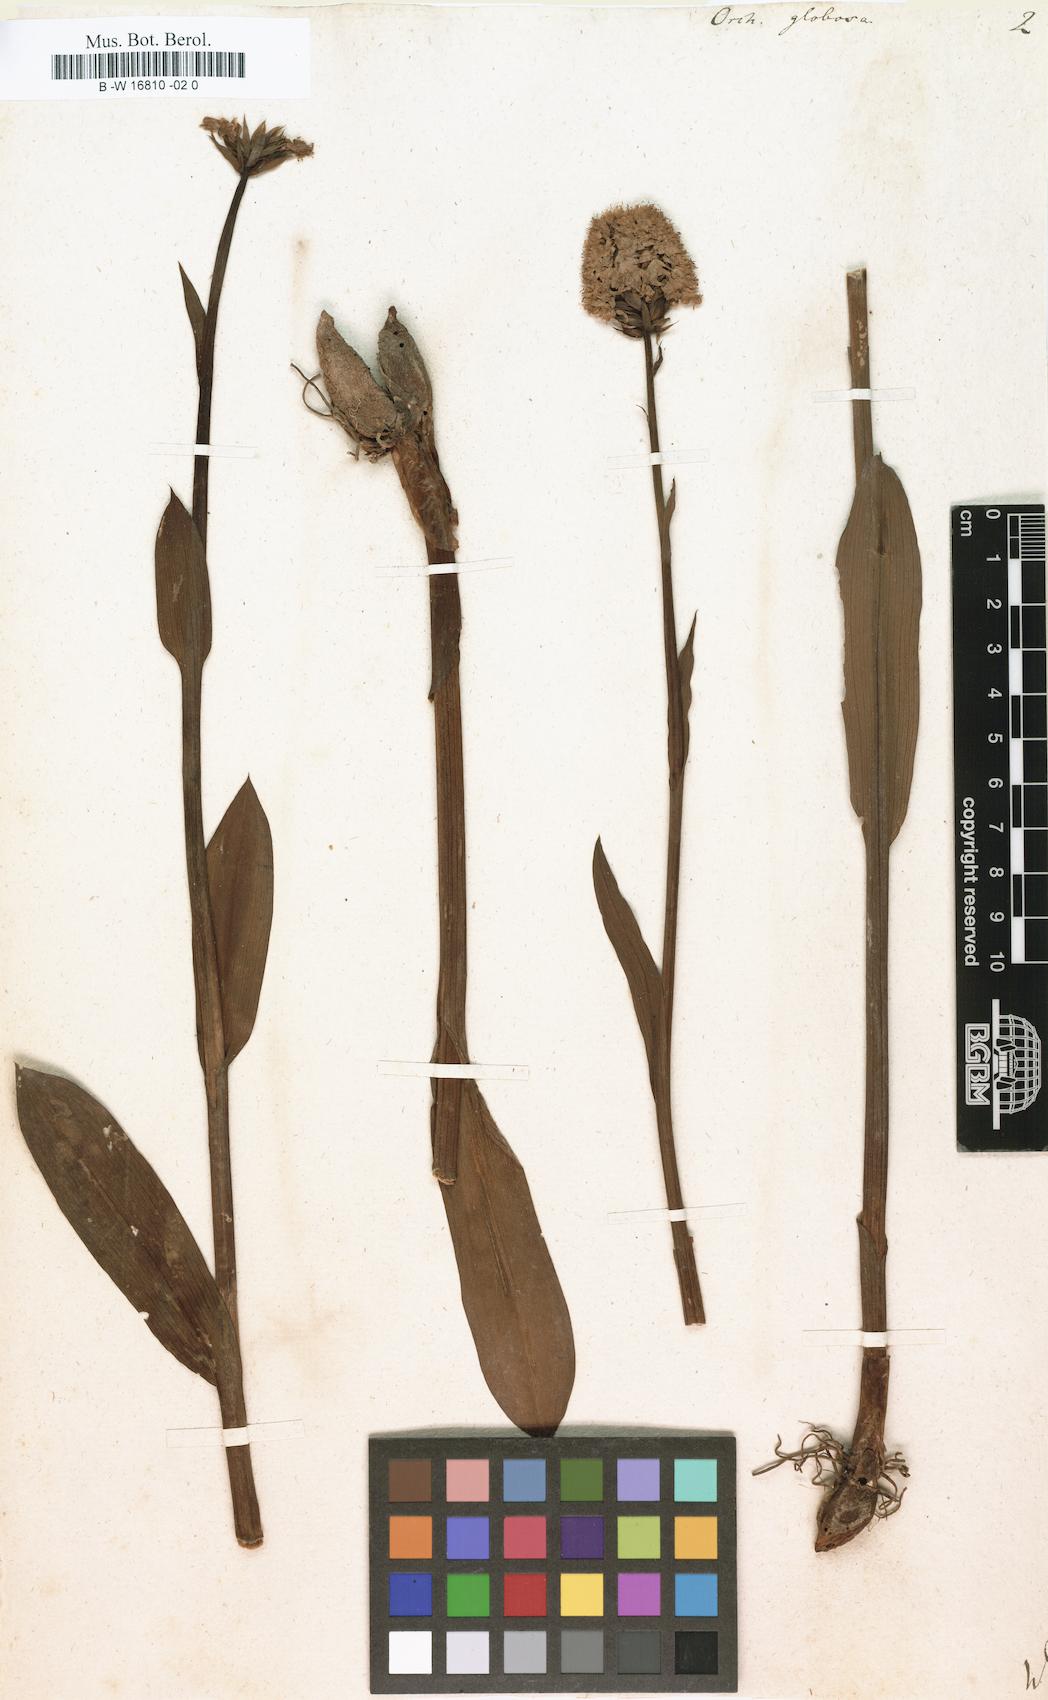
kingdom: Plantae
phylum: Tracheophyta
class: Liliopsida
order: Asparagales
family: Orchidaceae
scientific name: Orchidaceae
